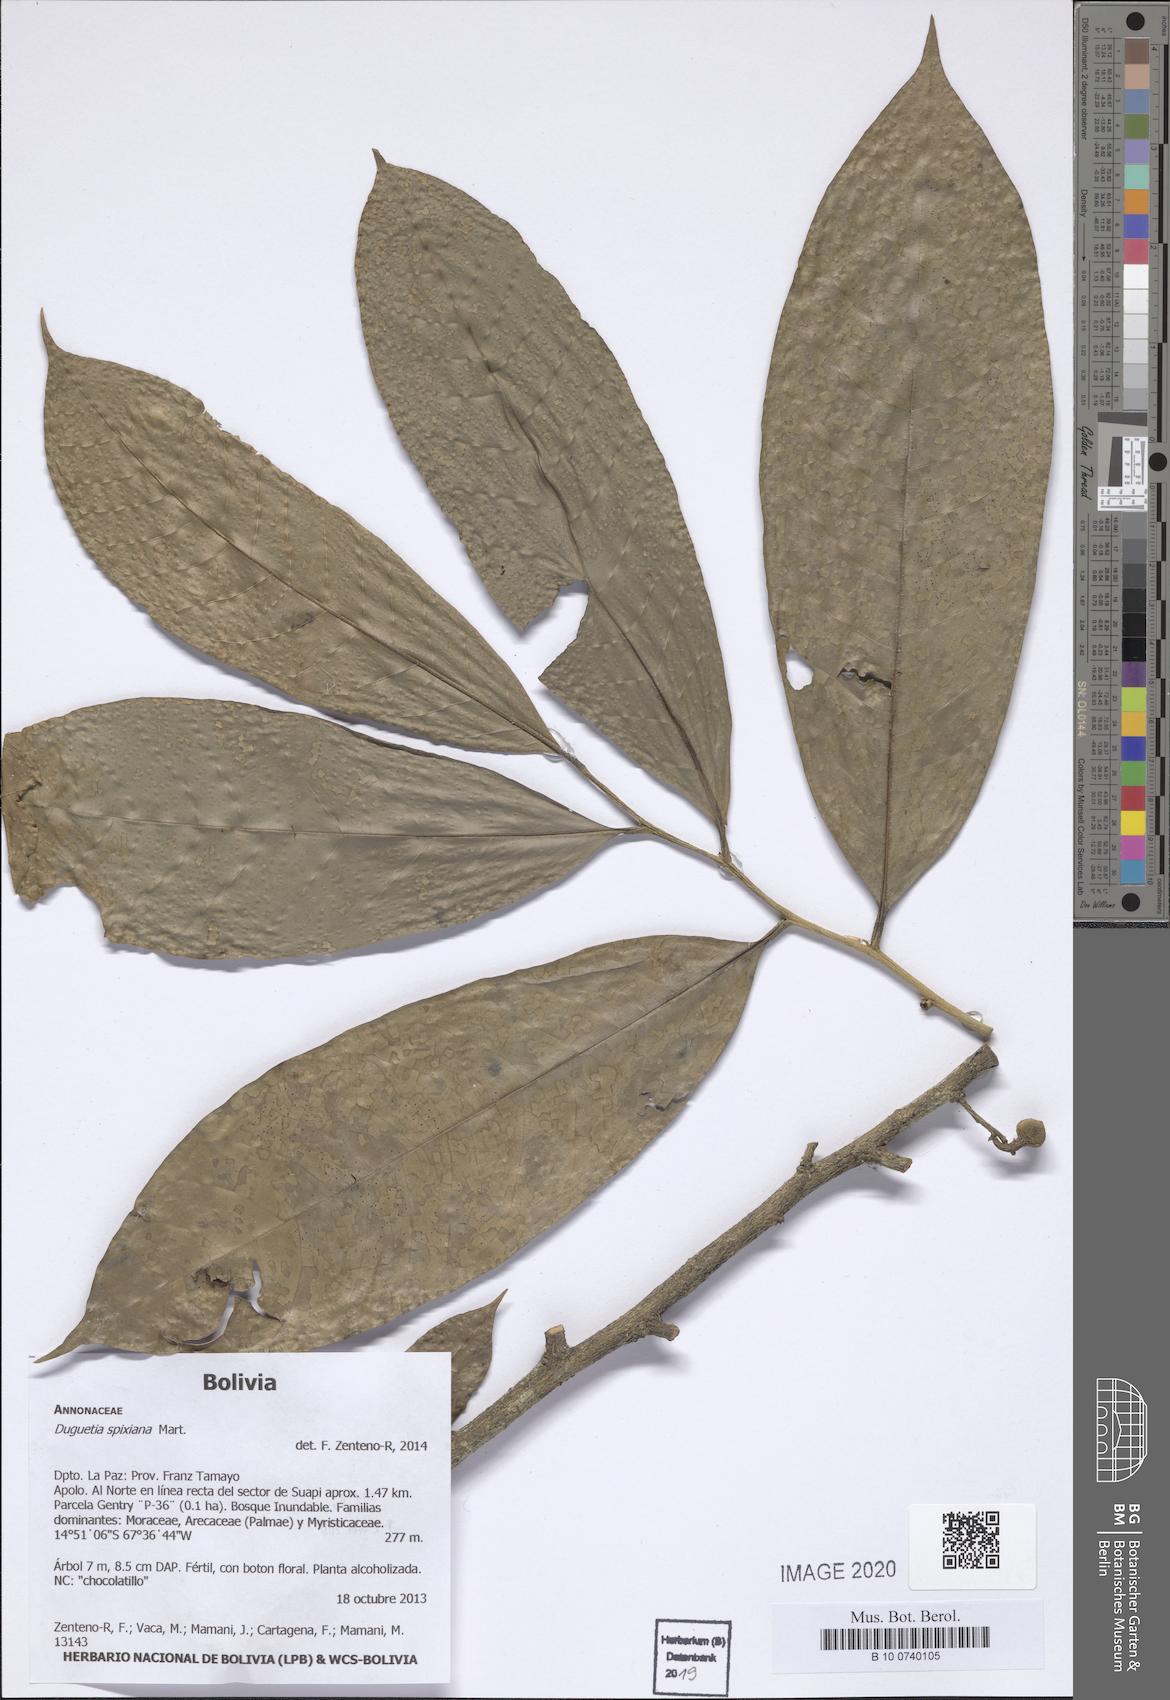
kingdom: Plantae
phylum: Tracheophyta
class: Magnoliopsida
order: Magnoliales
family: Annonaceae
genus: Duguetia
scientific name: Duguetia spixiana
